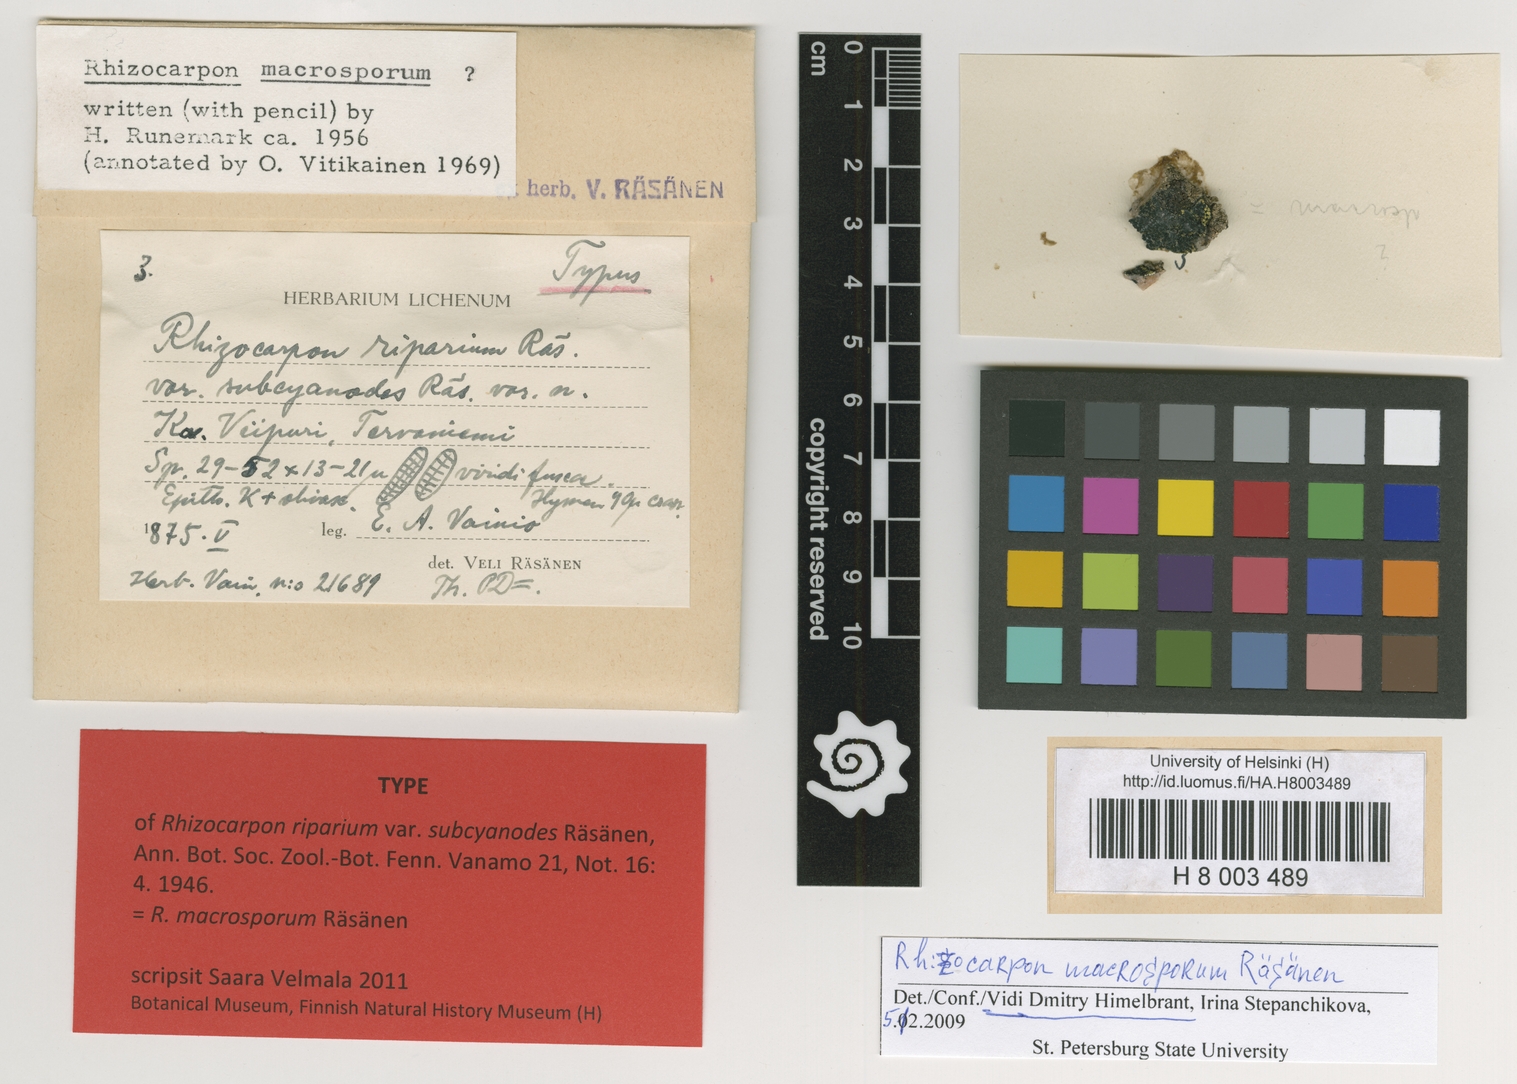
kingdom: Fungi
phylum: Ascomycota
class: Lecanoromycetes
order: Rhizocarpales
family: Rhizocarpaceae
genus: Rhizocarpon
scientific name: Rhizocarpon geographicum
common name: Yellow map lichen
